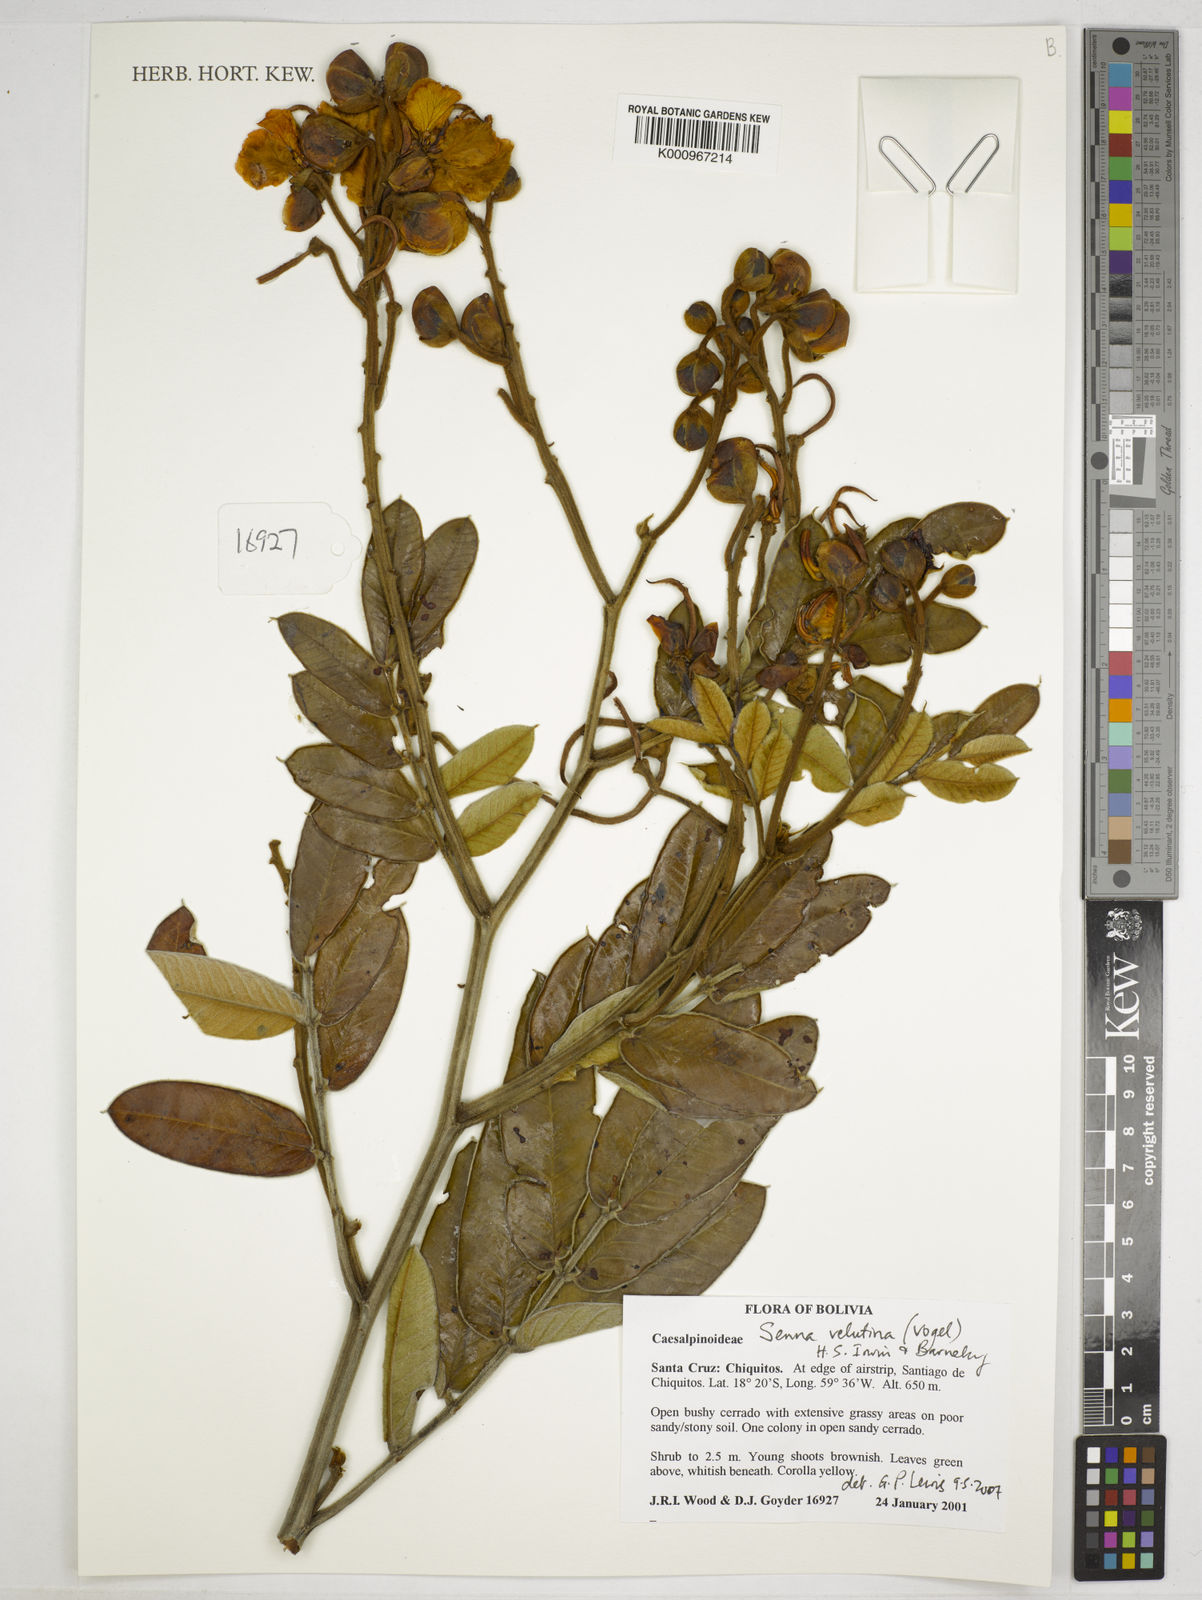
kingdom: Plantae
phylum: Tracheophyta
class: Magnoliopsida
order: Fabales
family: Fabaceae
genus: Senna
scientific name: Senna velutina
